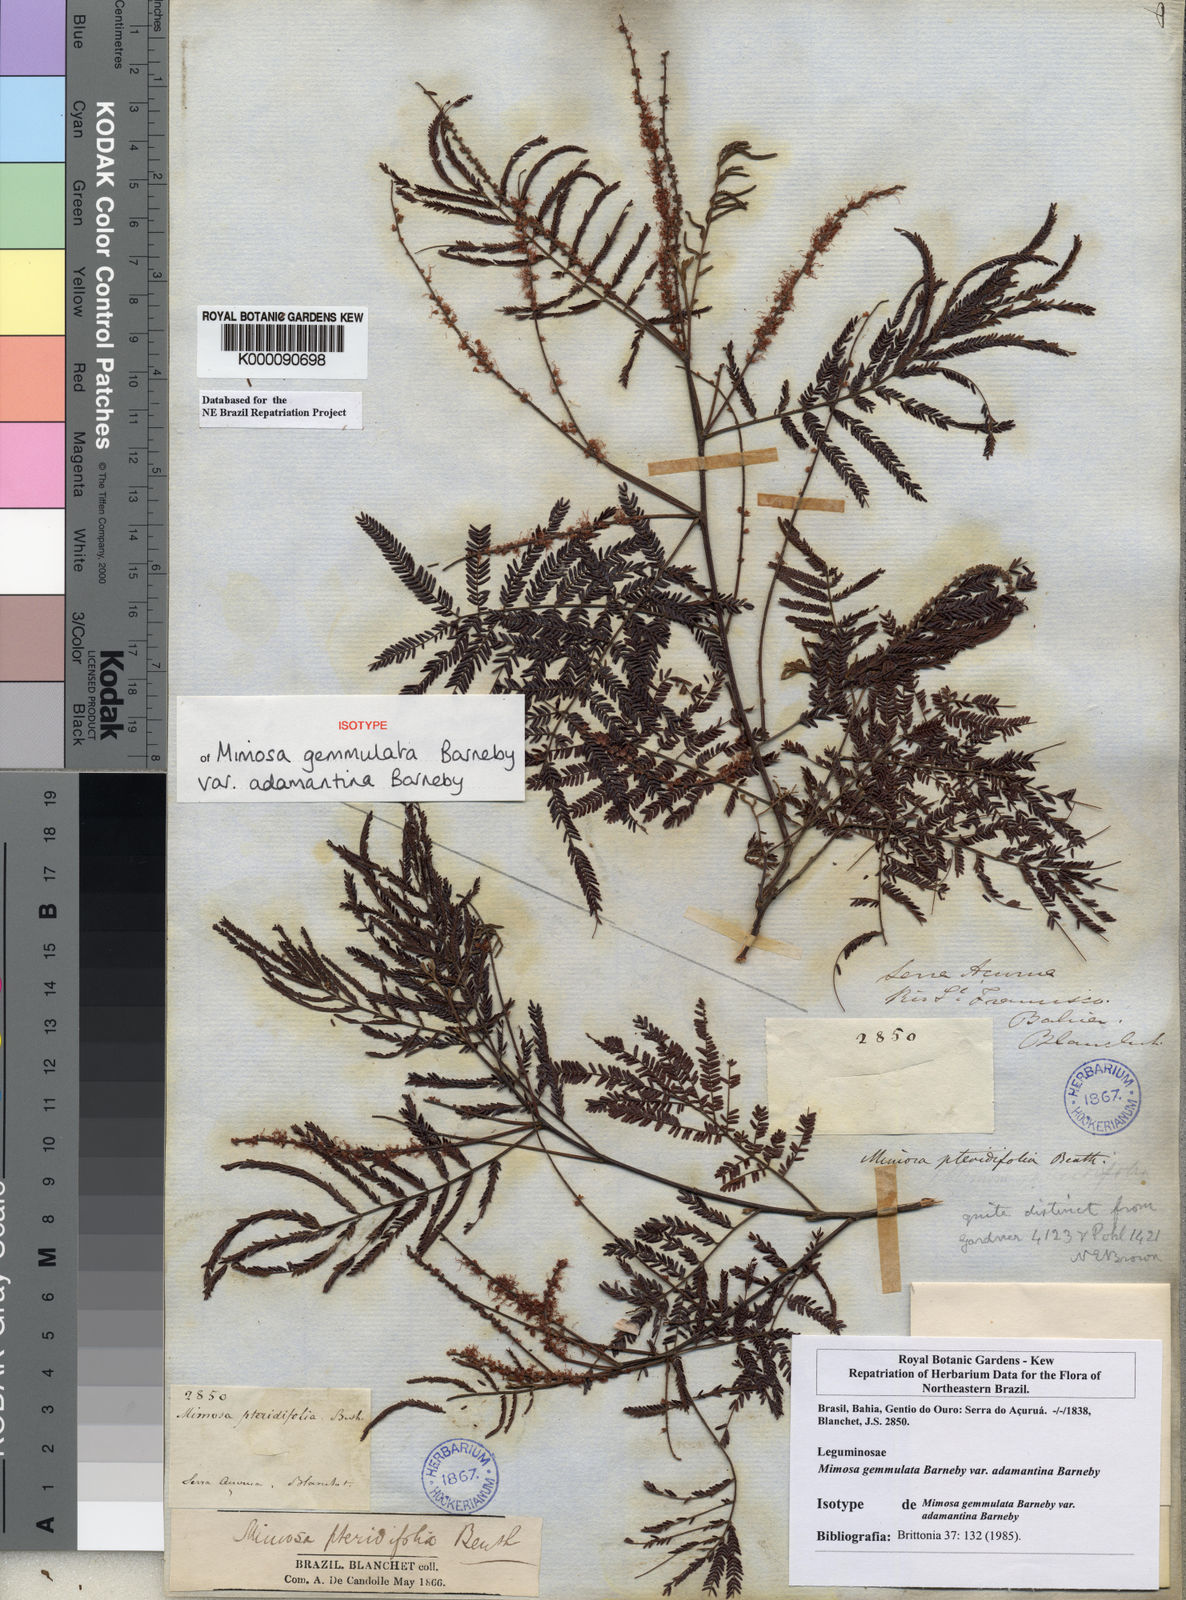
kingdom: Plantae
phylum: Tracheophyta
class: Magnoliopsida
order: Fabales
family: Fabaceae
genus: Mimosa
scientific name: Mimosa gemmulata
